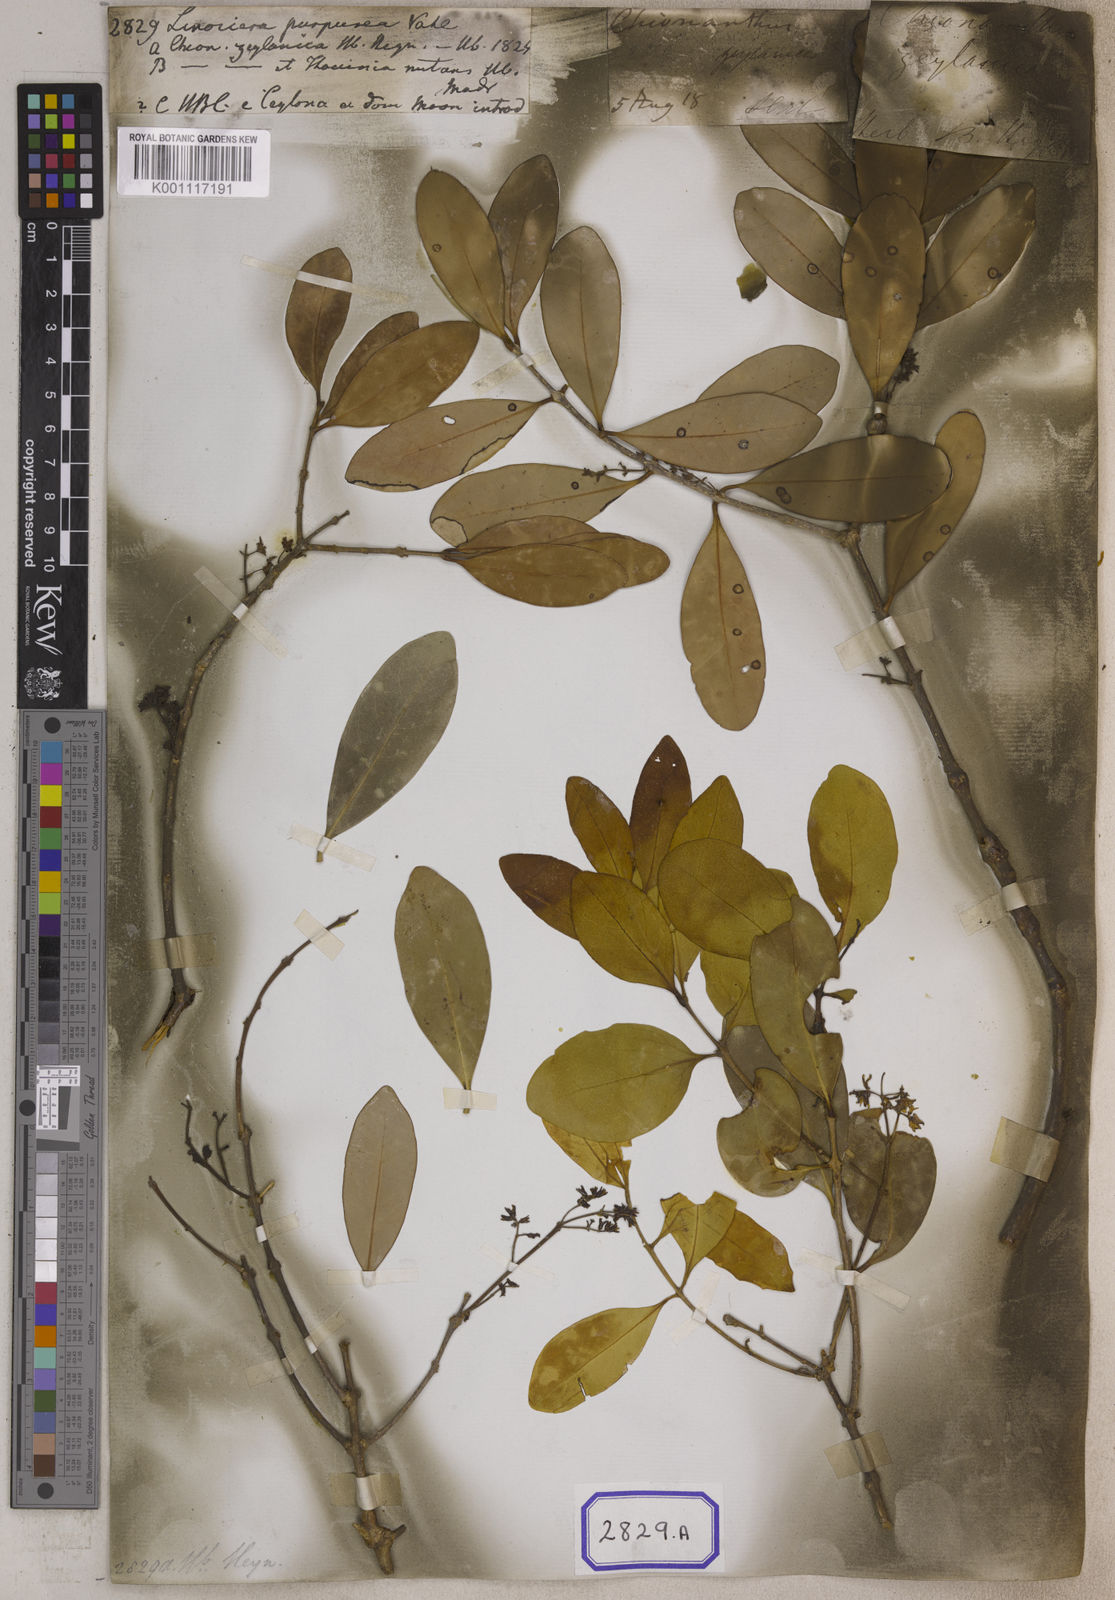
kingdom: Plantae
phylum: Tracheophyta
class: Magnoliopsida
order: Lamiales
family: Oleaceae
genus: Chionanthus
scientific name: Chionanthus purpureus
